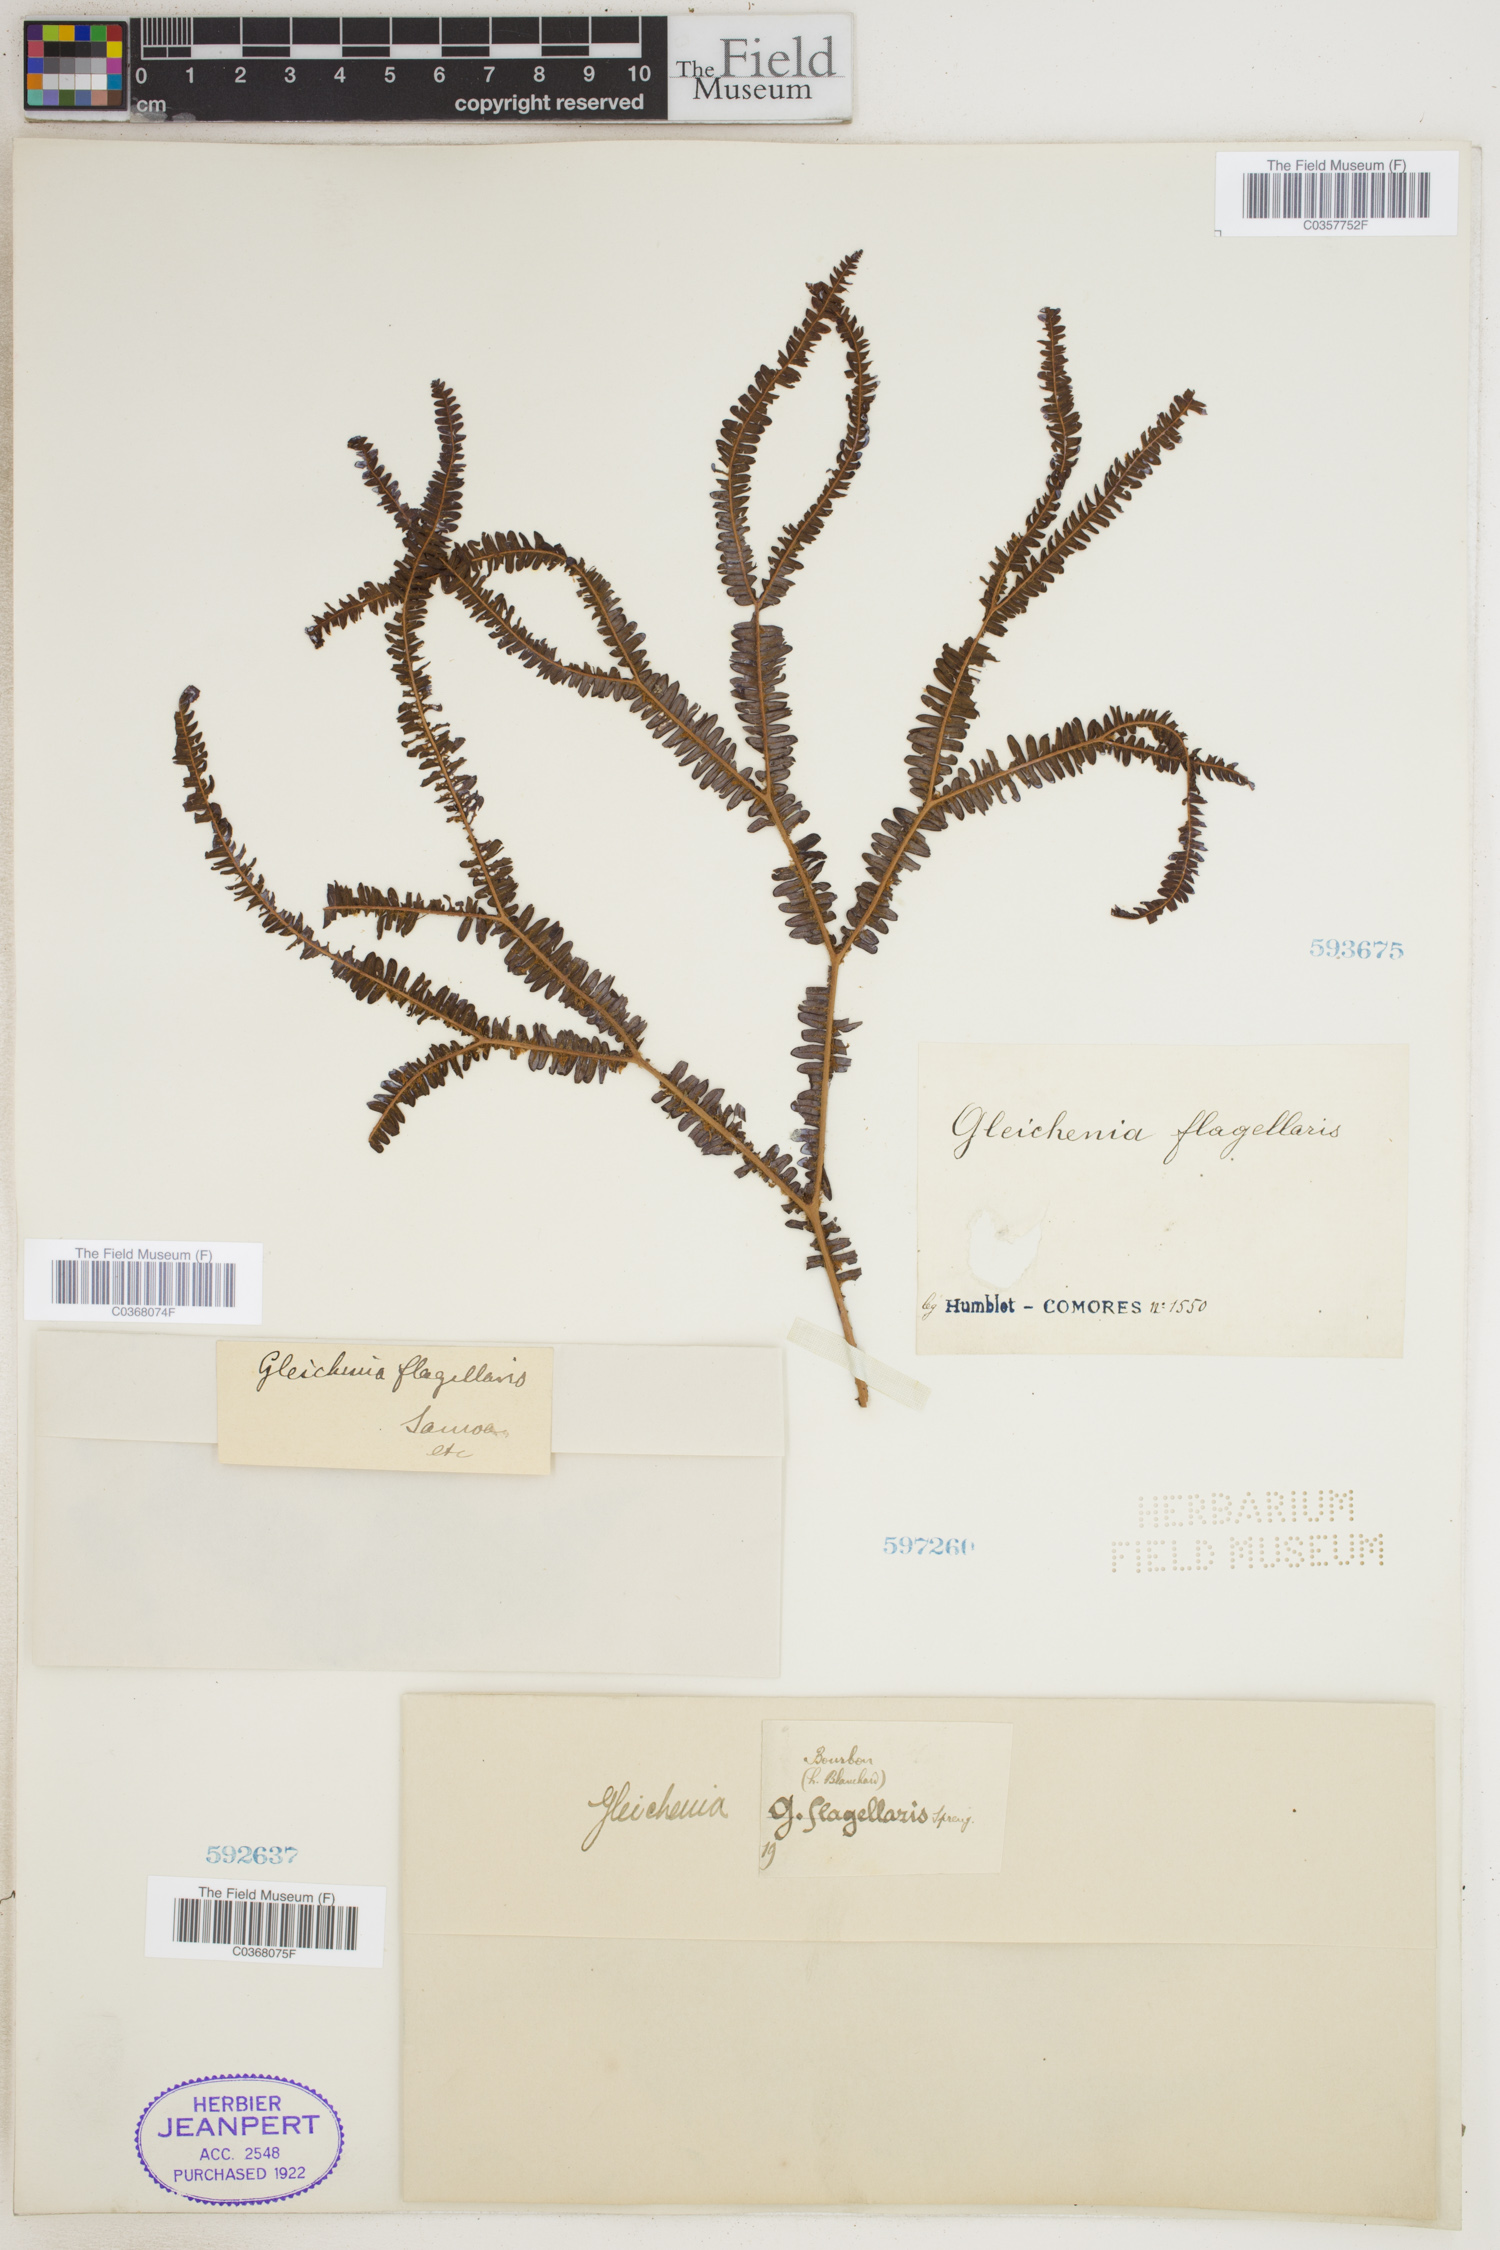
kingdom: Plantae
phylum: Tracheophyta
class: Polypodiopsida
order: Gleicheniales
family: Gleicheniaceae
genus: Sticherus
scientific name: Sticherus flagellaris
